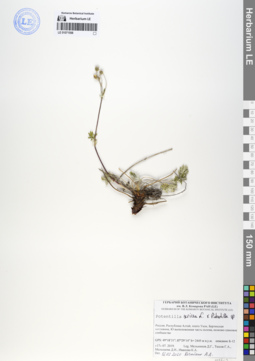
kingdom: Plantae
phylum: Tracheophyta
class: Magnoliopsida
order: Rosales
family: Rosaceae
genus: Potentilla
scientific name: Potentilla sericea
